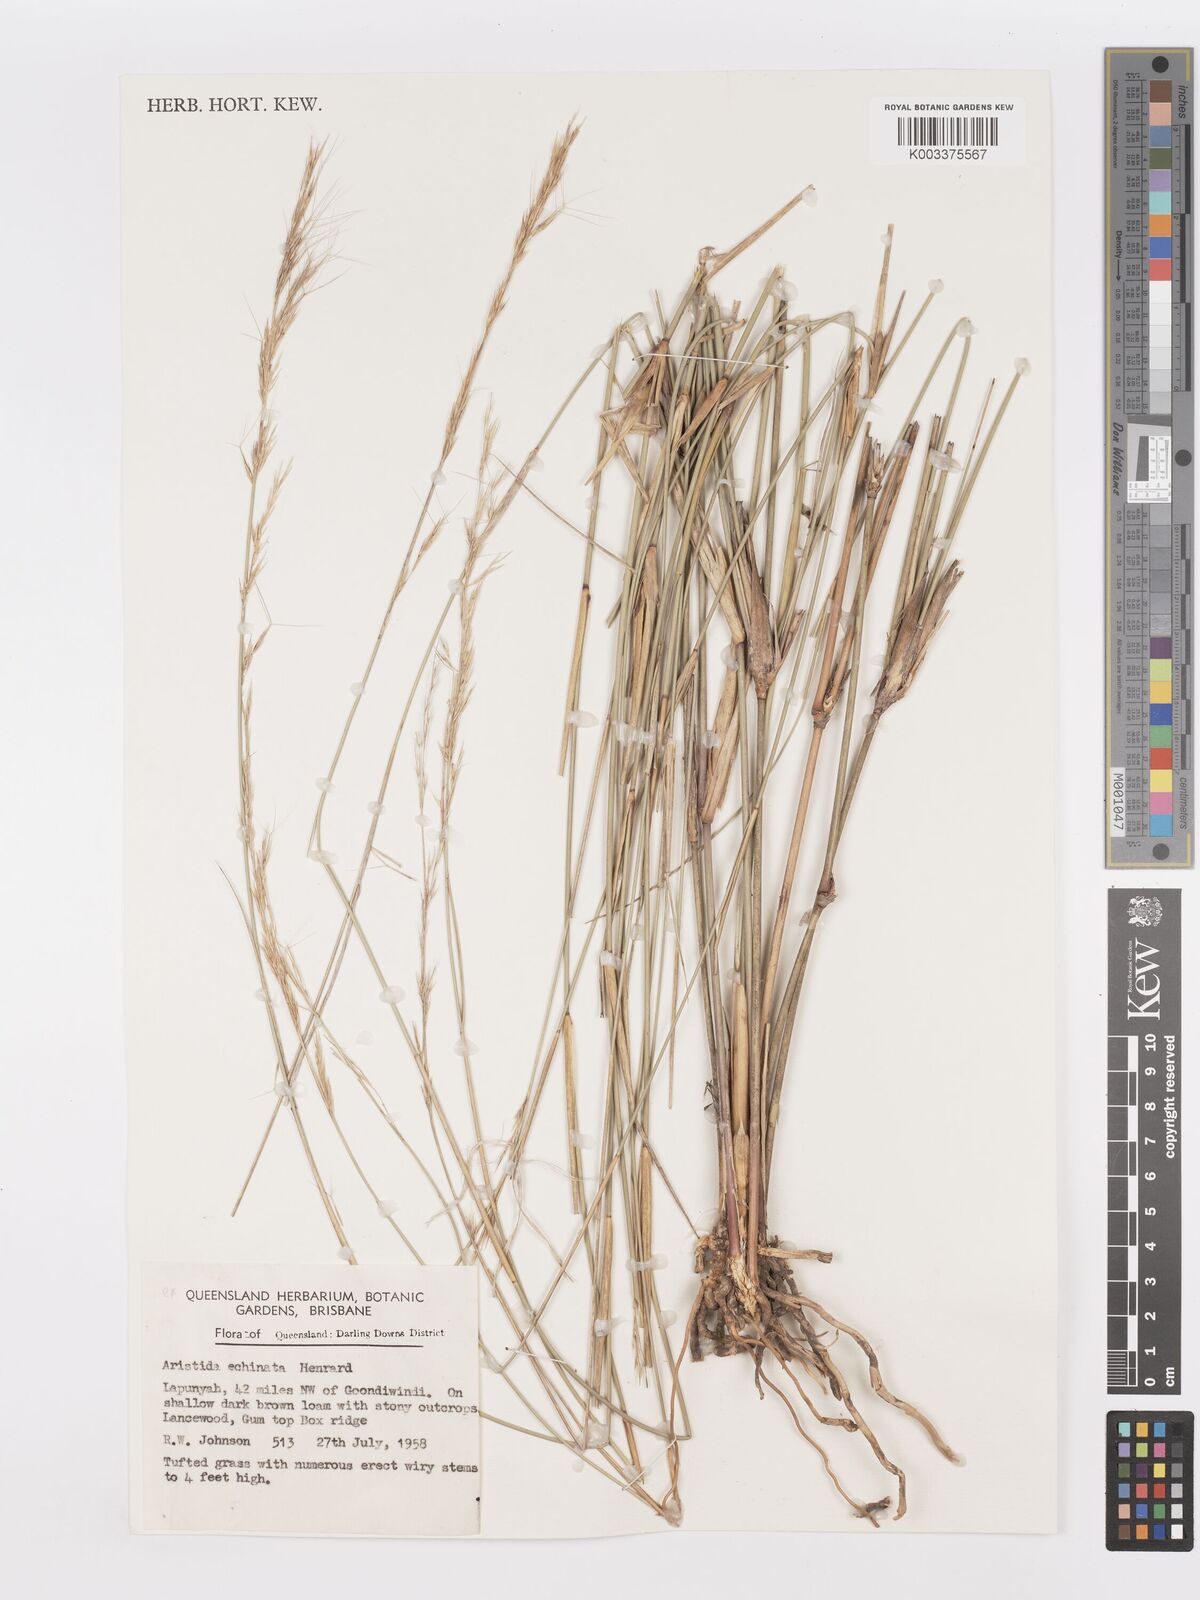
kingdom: Plantae
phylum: Tracheophyta
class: Liliopsida
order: Poales
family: Poaceae
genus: Aristida
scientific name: Aristida echinata
